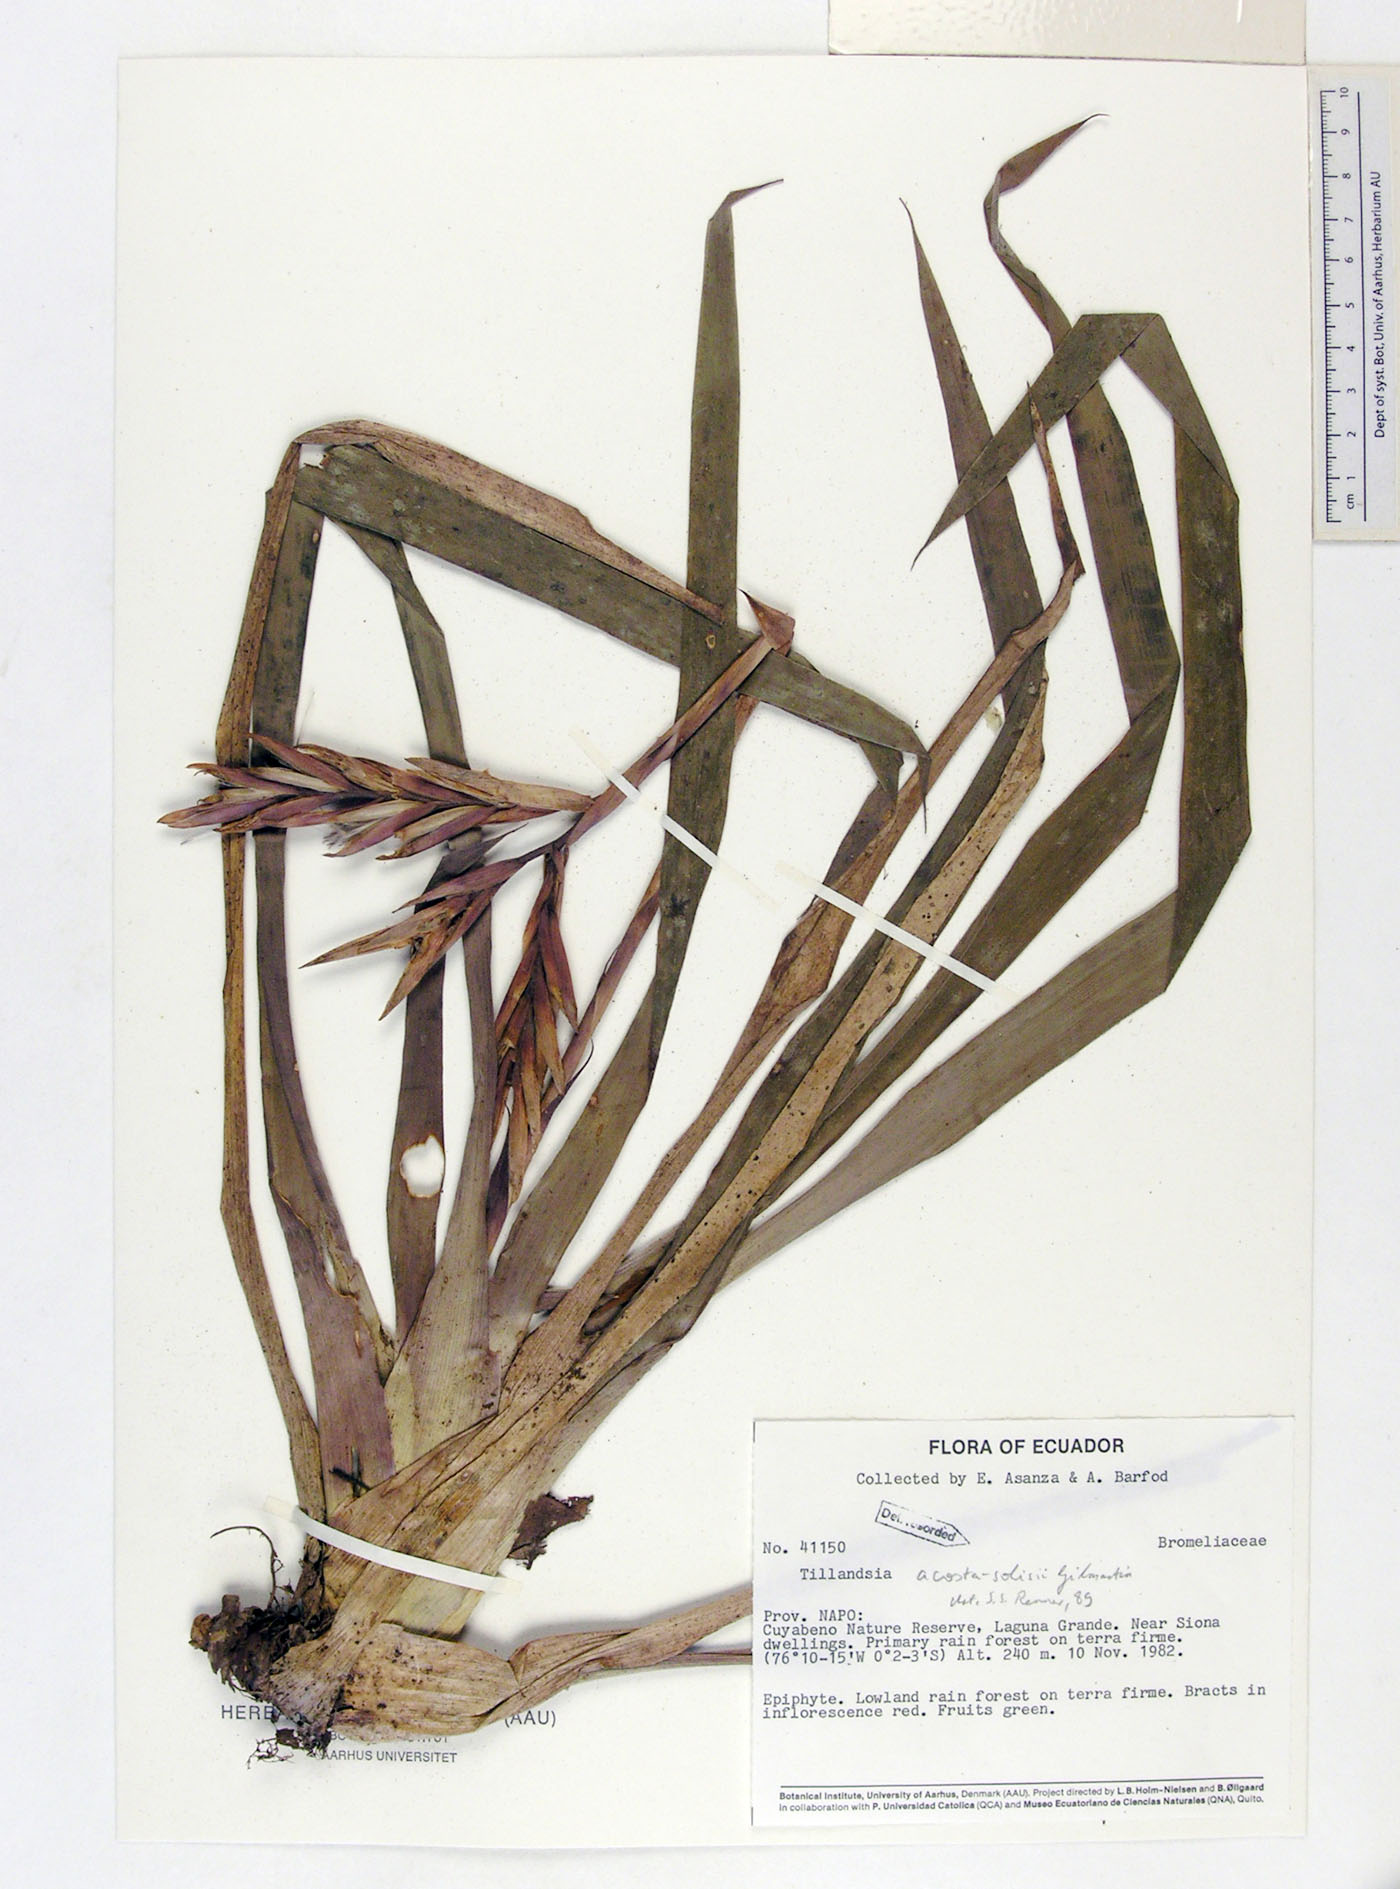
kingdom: Plantae
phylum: Tracheophyta
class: Liliopsida
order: Poales
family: Bromeliaceae
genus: Vriesea
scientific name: Vriesea dubia
